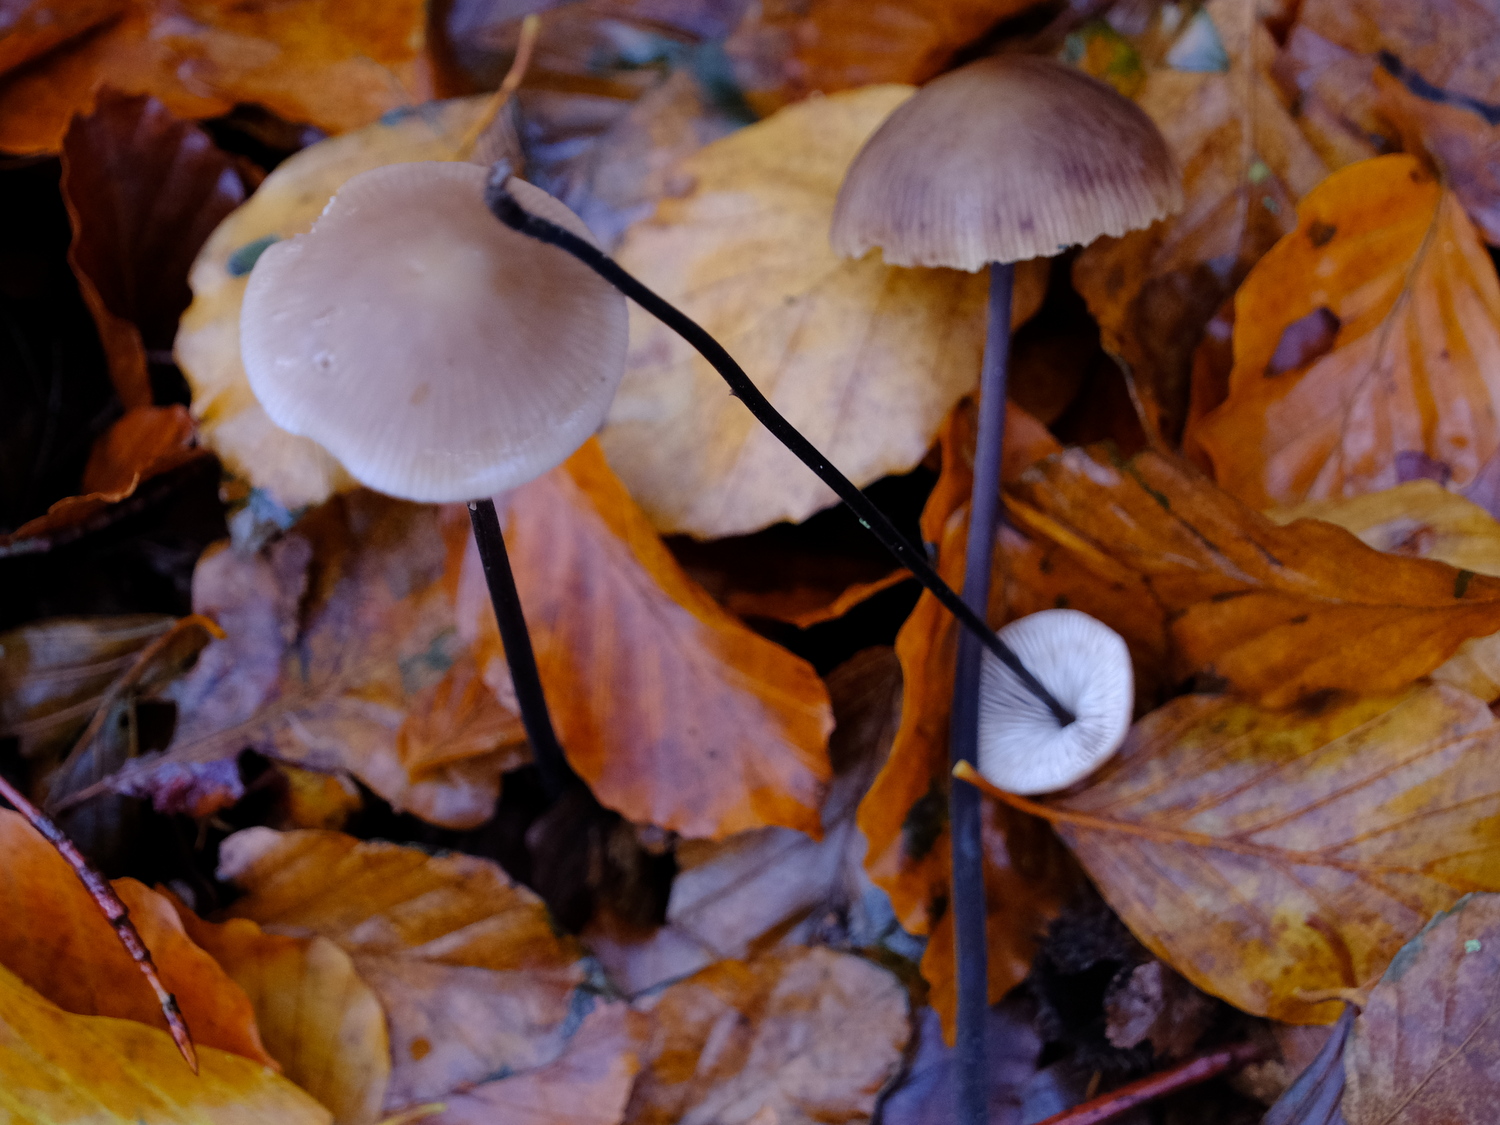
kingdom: Fungi
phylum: Basidiomycota
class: Agaricomycetes
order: Agaricales
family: Omphalotaceae
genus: Mycetinis
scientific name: Mycetinis alliaceus
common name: stor løghat
